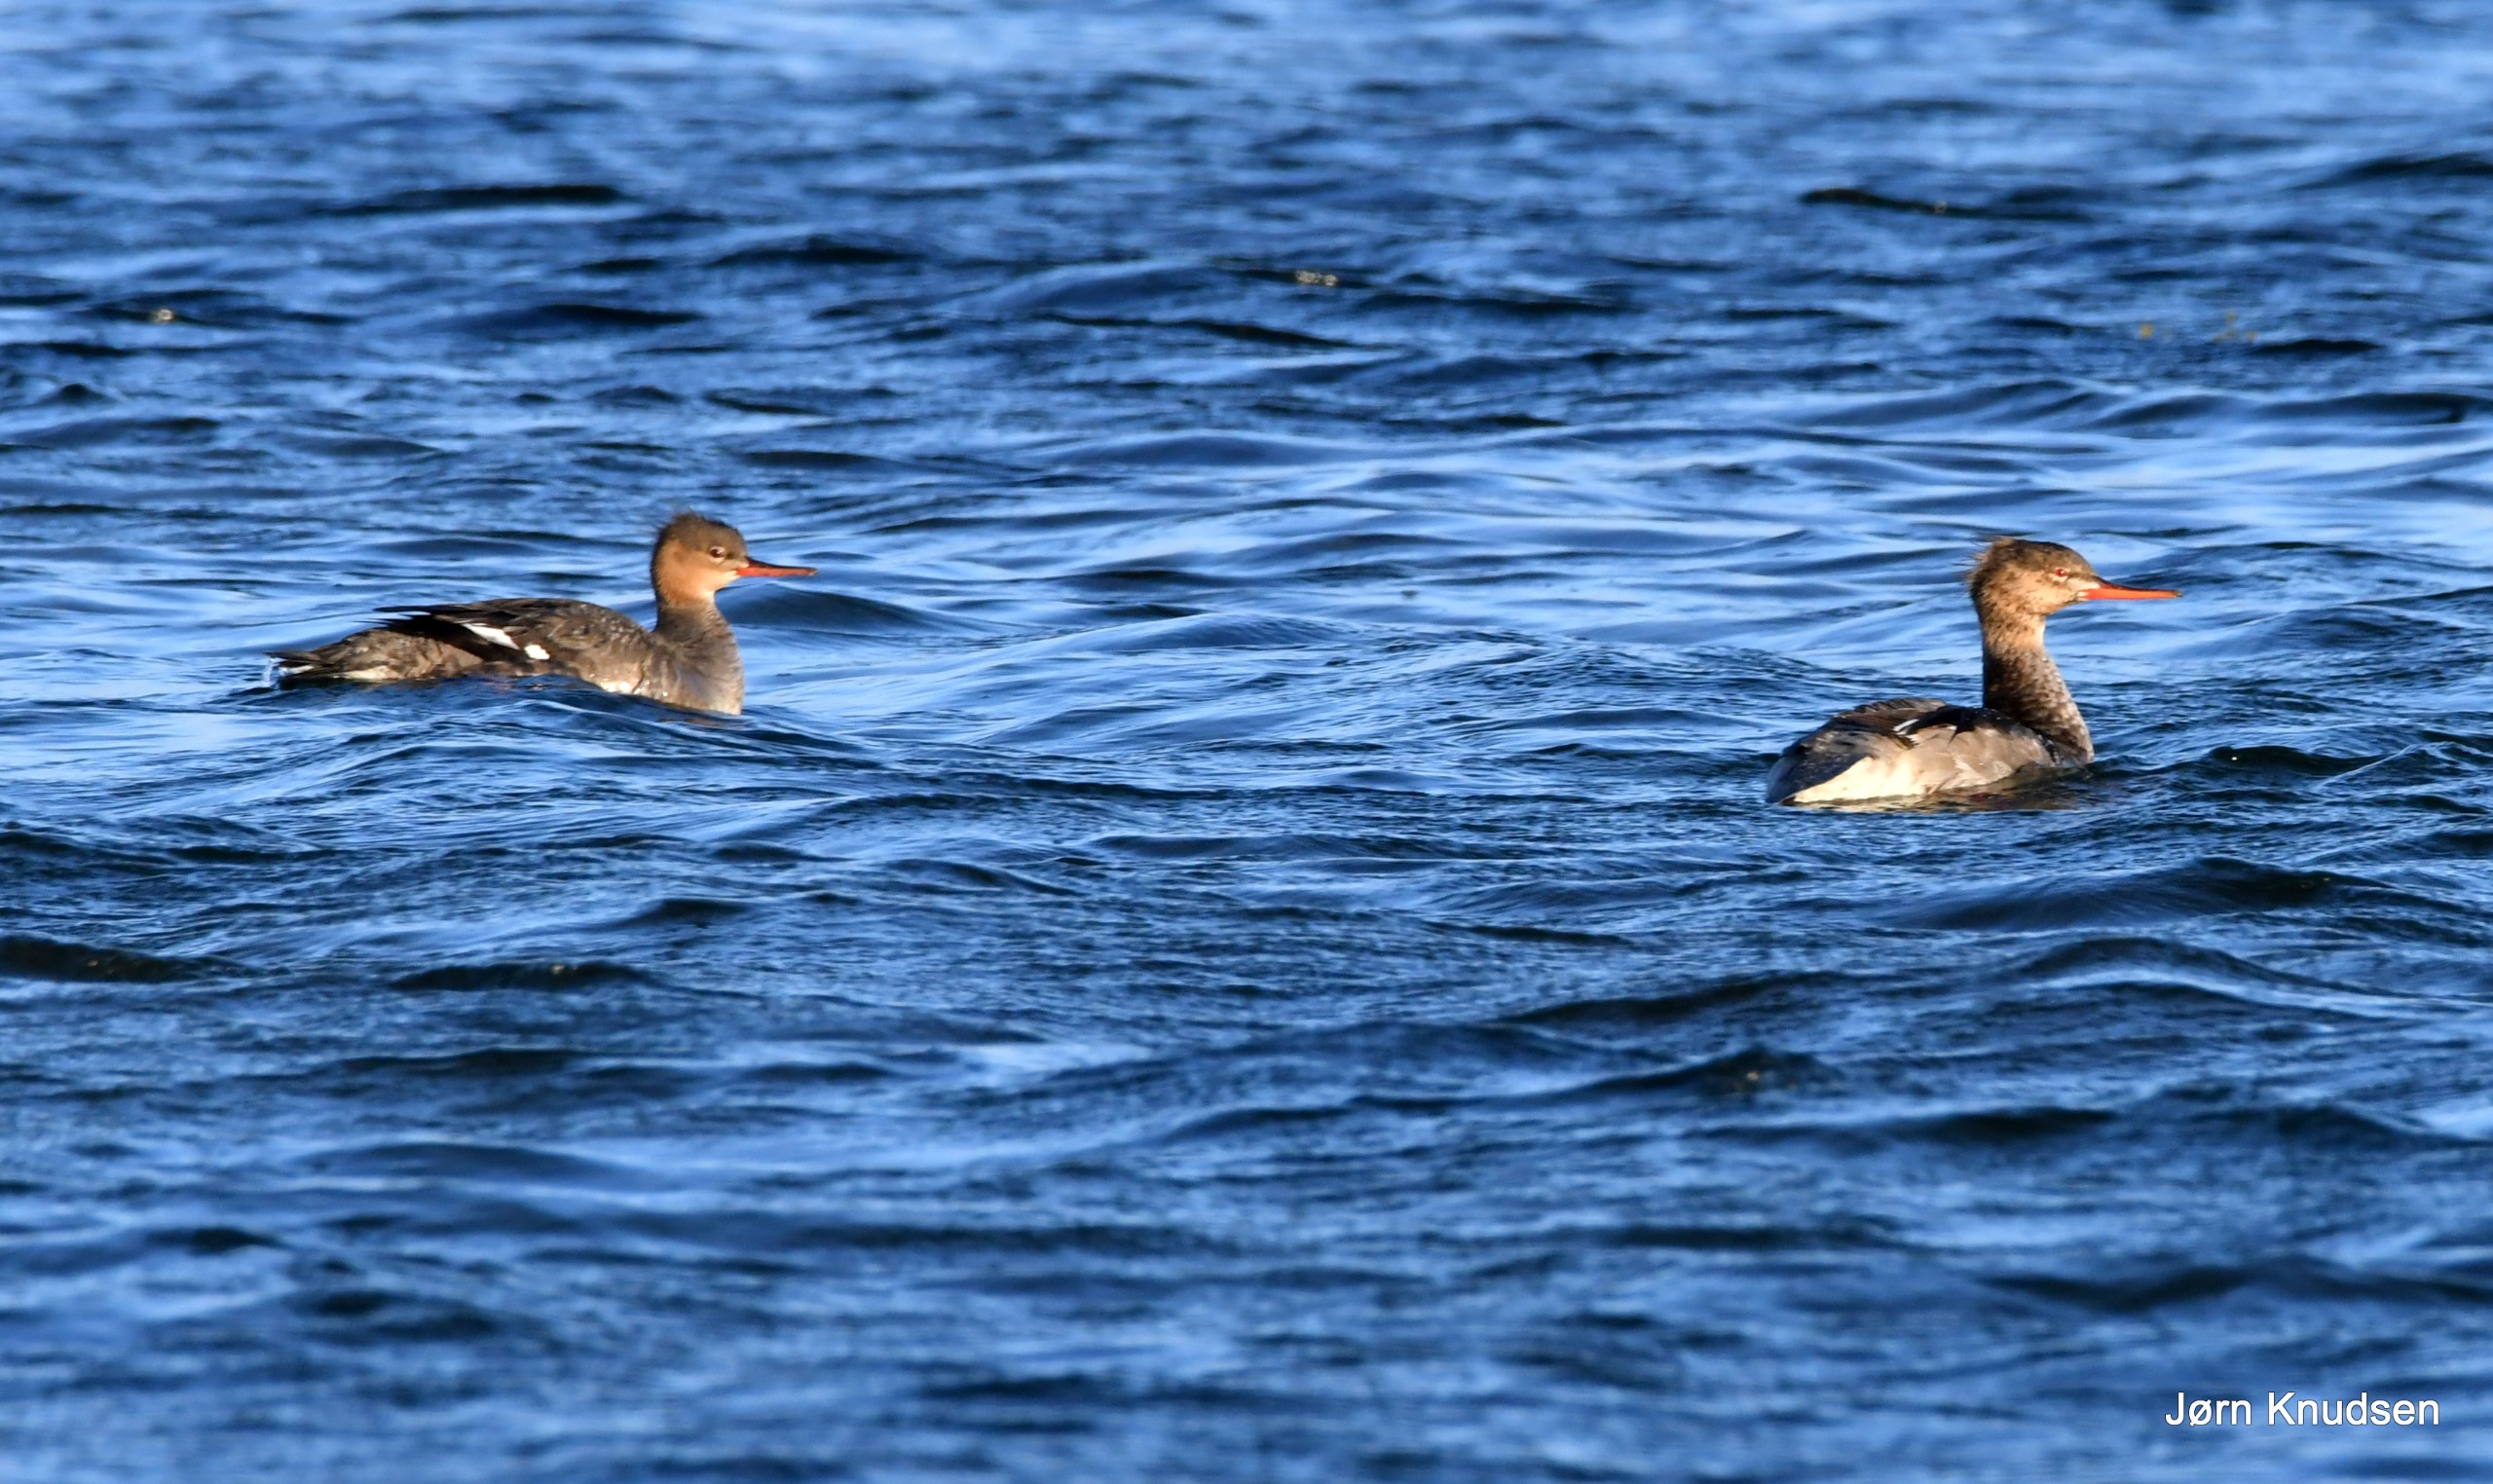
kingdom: Animalia
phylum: Chordata
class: Aves
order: Anseriformes
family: Anatidae
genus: Mergus
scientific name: Mergus serrator
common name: Toppet skallesluger
